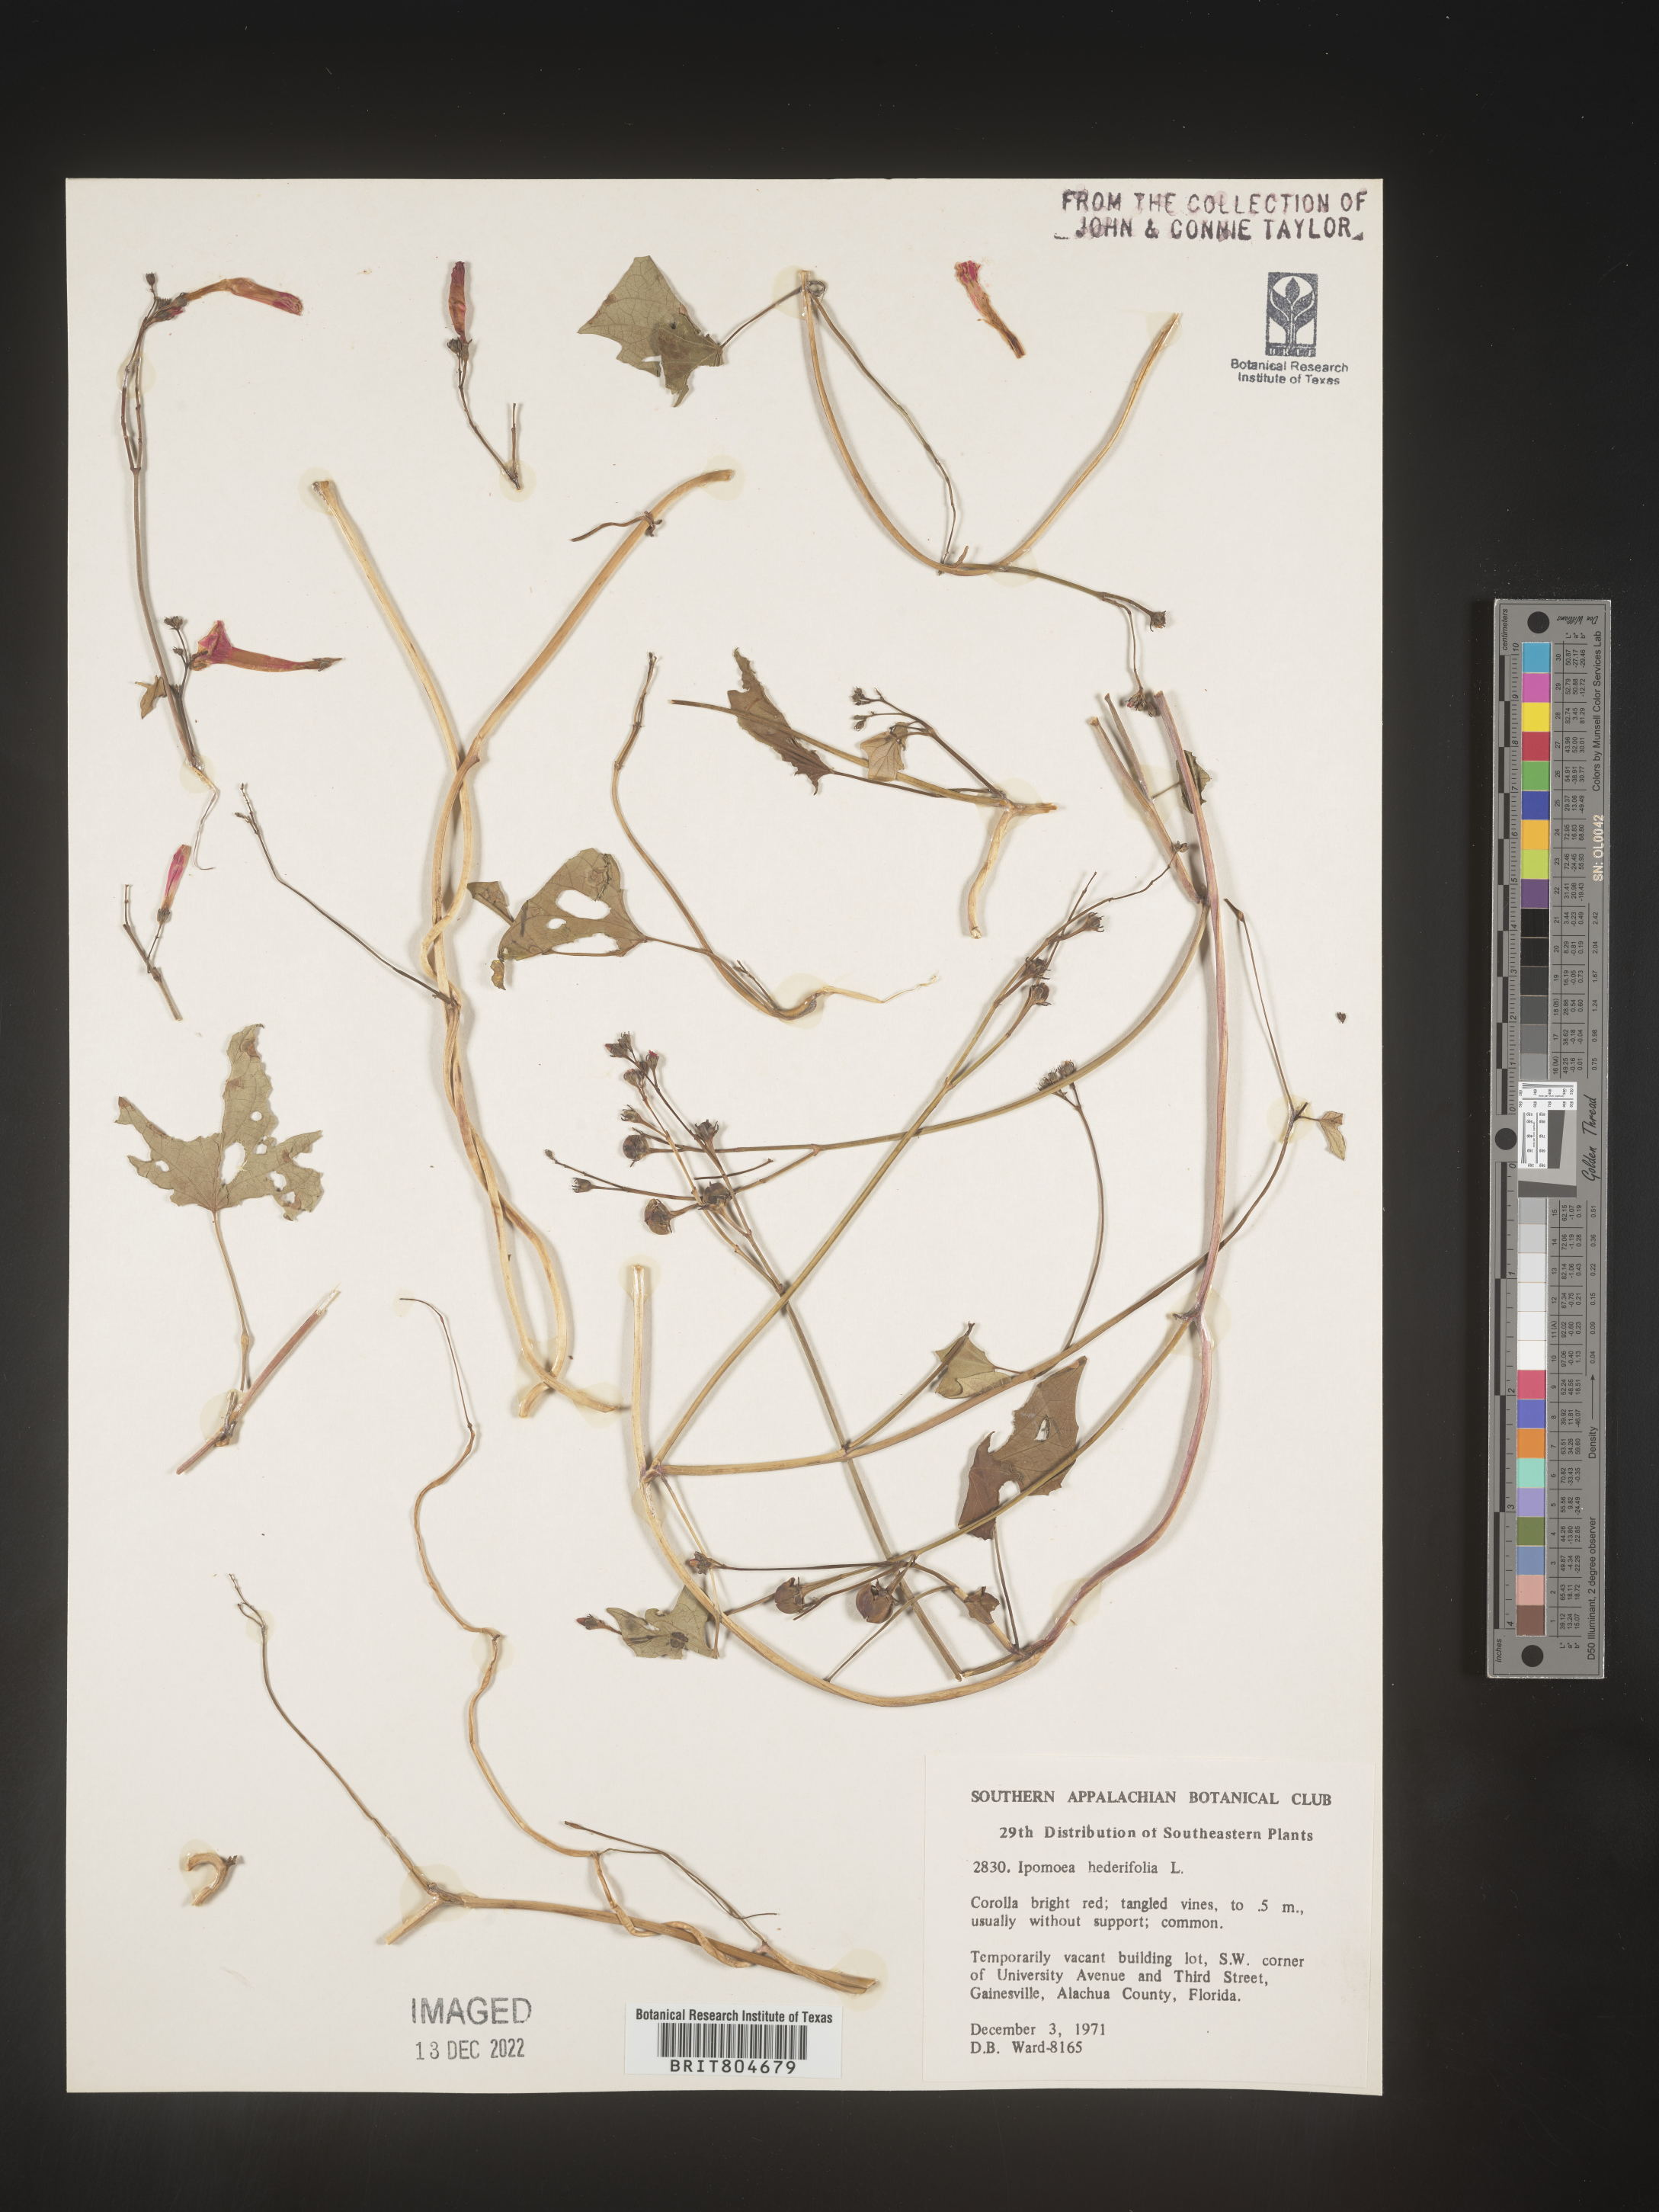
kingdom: Plantae
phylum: Tracheophyta
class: Magnoliopsida
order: Solanales
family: Convolvulaceae
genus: Ipomoea
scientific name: Ipomoea hederacea
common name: Ivy-leaved morning-glory
